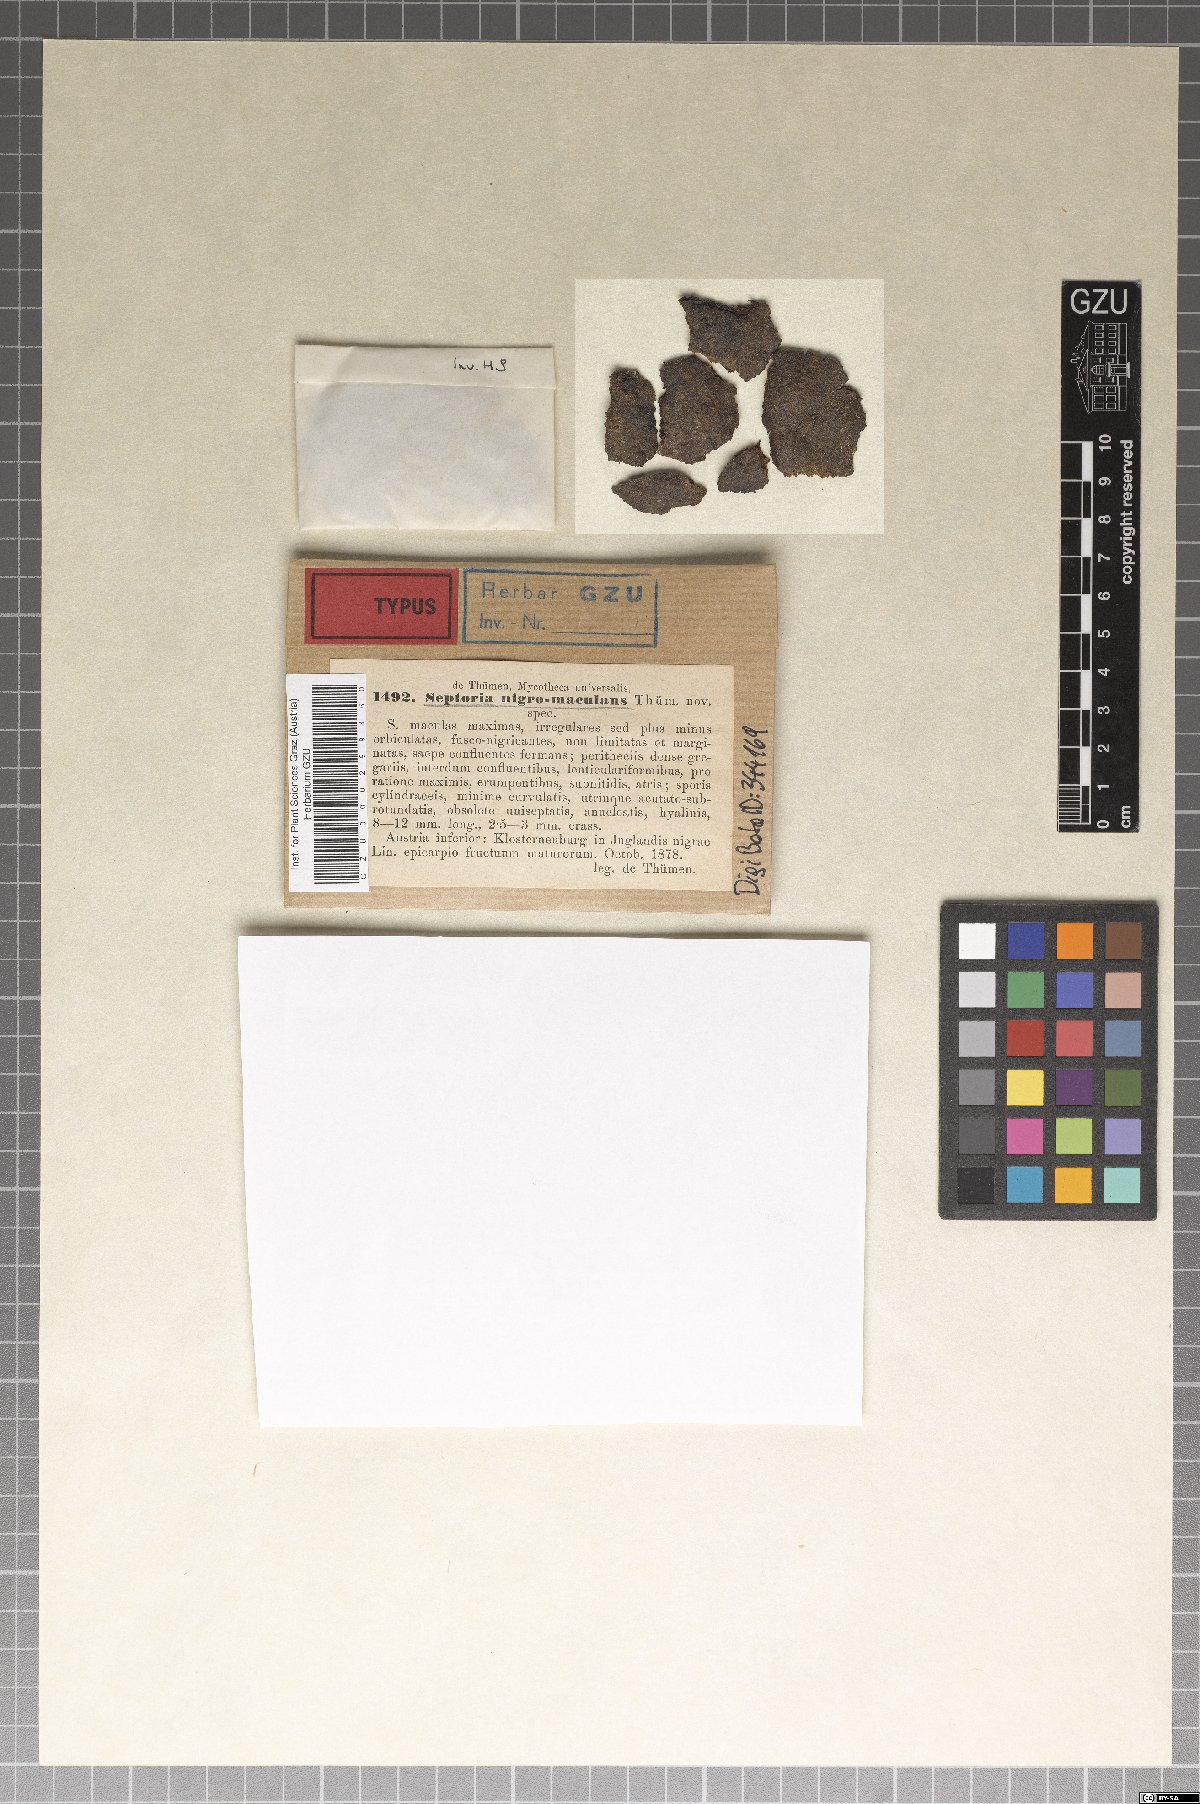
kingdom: Fungi
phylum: Ascomycota
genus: Cytosporina
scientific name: Cytosporina nigromaculans
